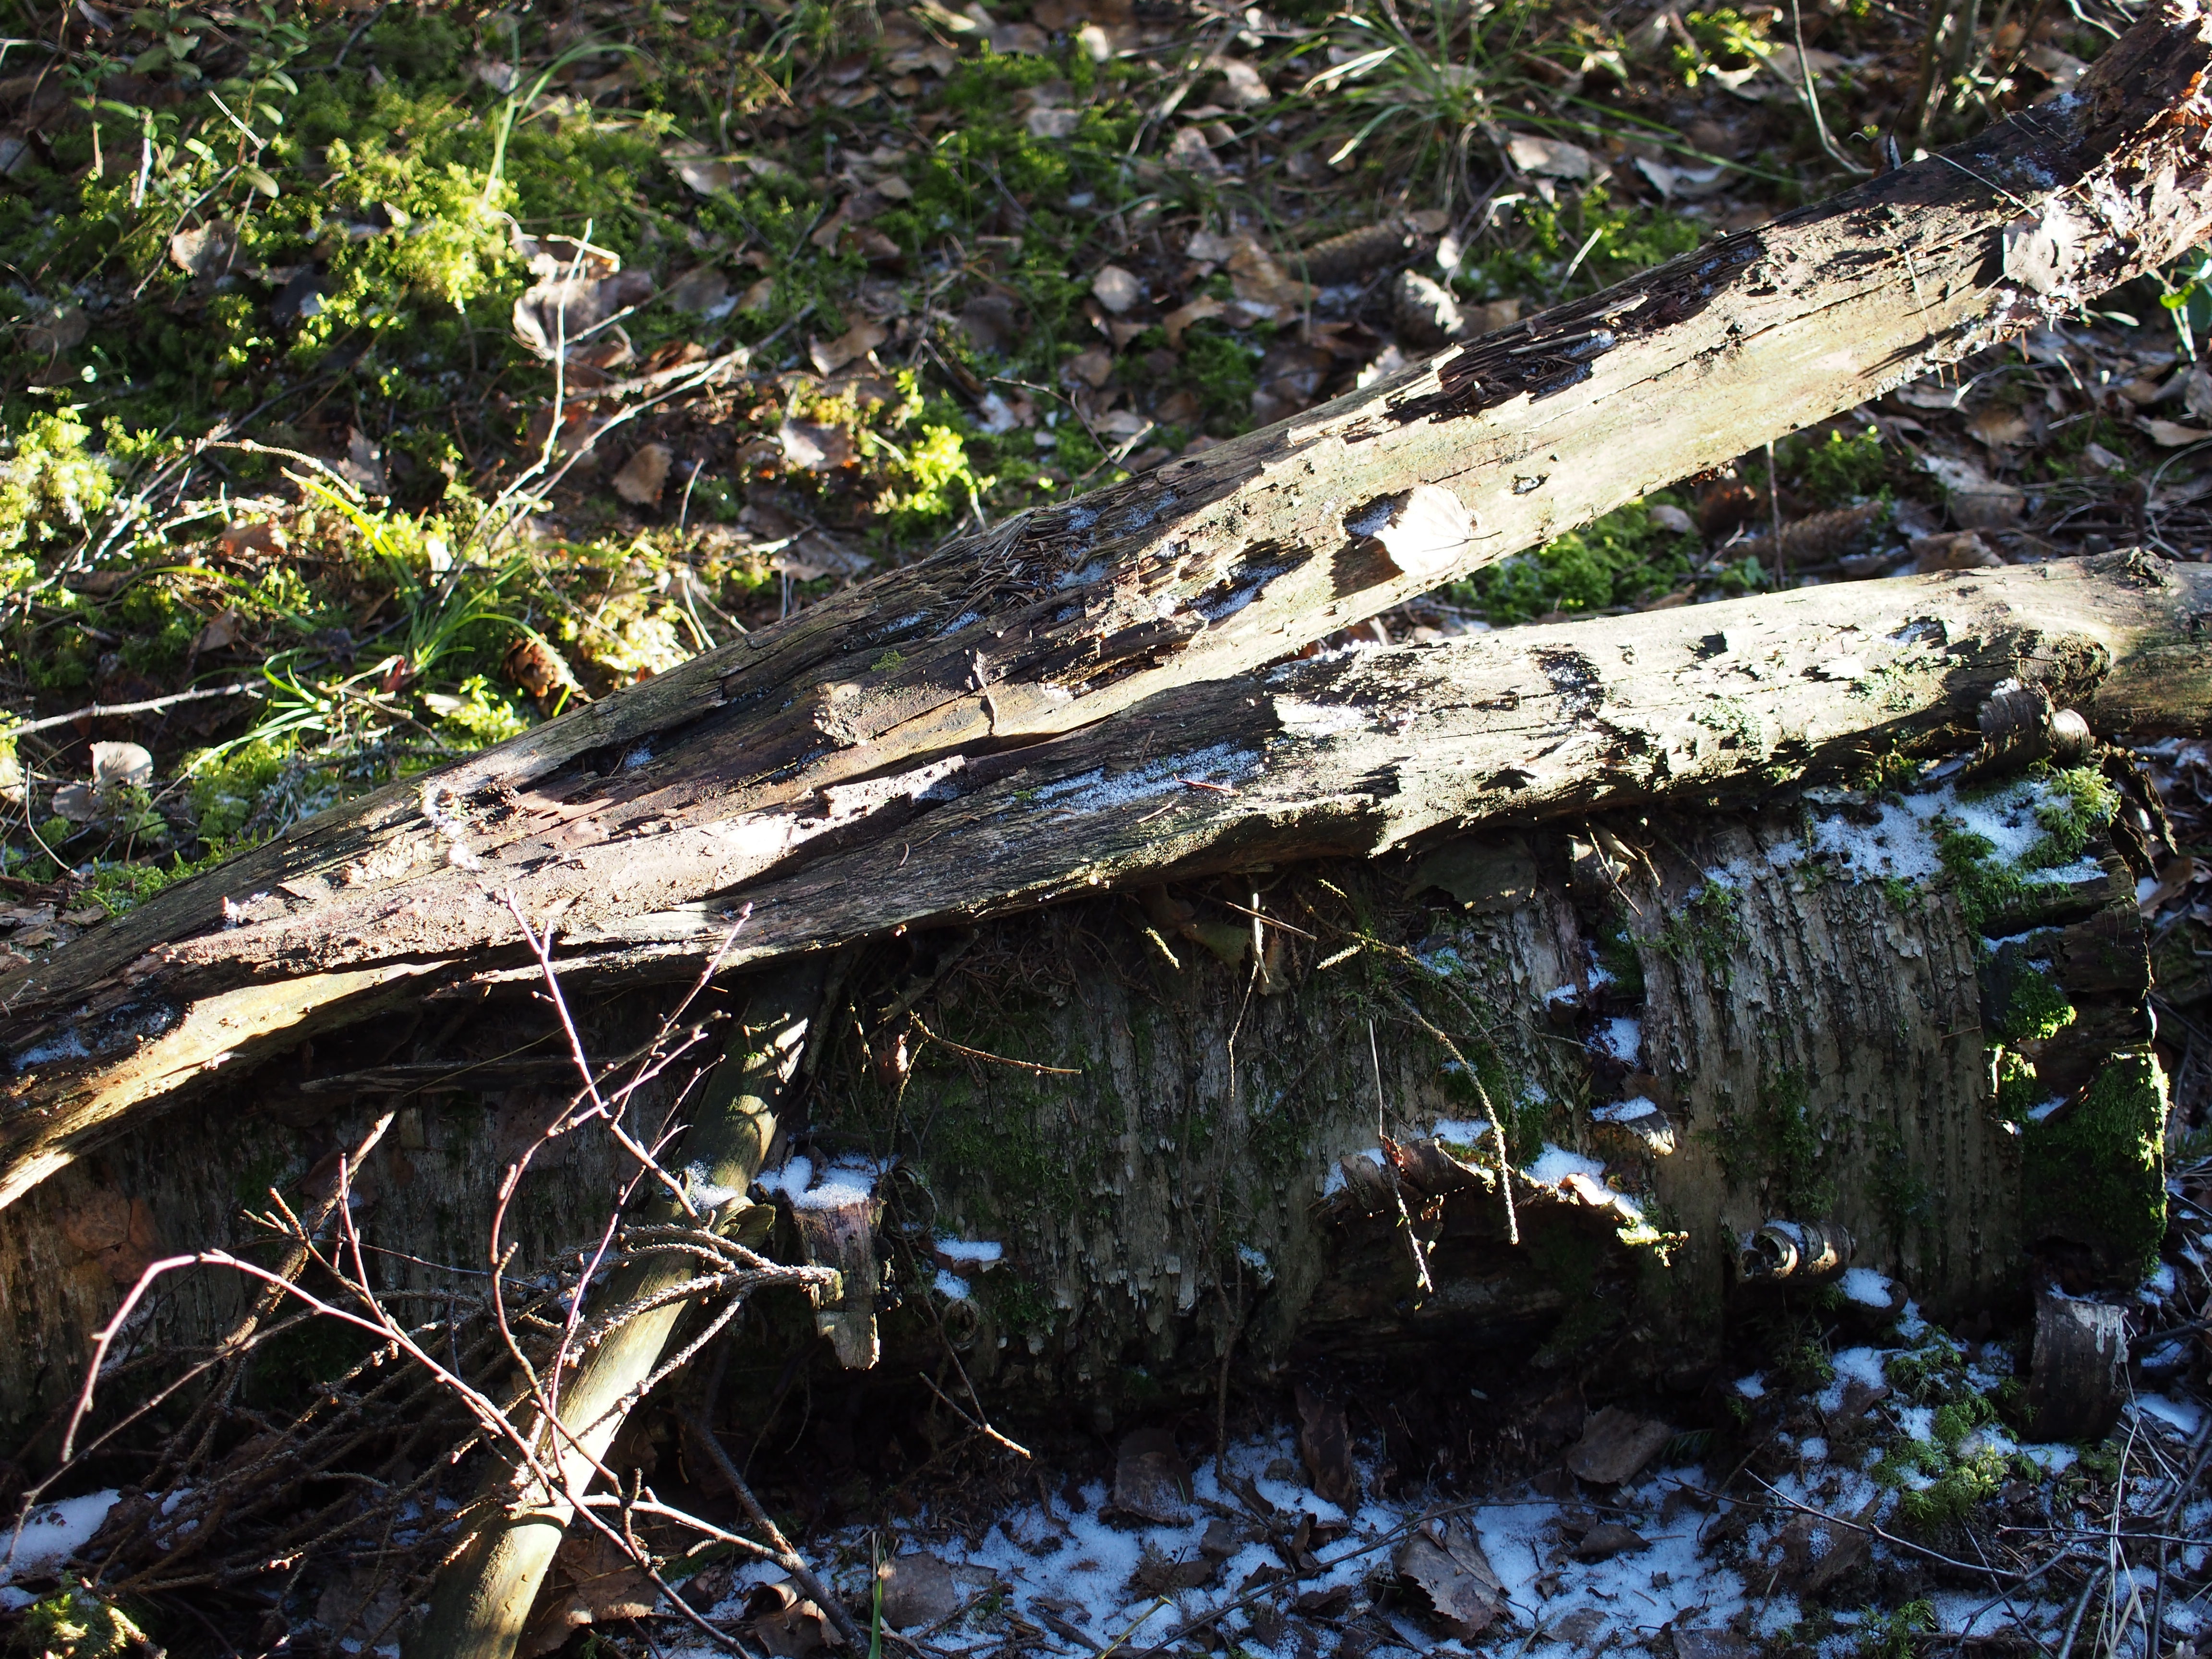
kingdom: Fungi
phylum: Basidiomycota
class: Agaricomycetes
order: Russulales
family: Stereaceae
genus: Stereum
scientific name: Stereum hirsutum
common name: Hairy curtain crust
